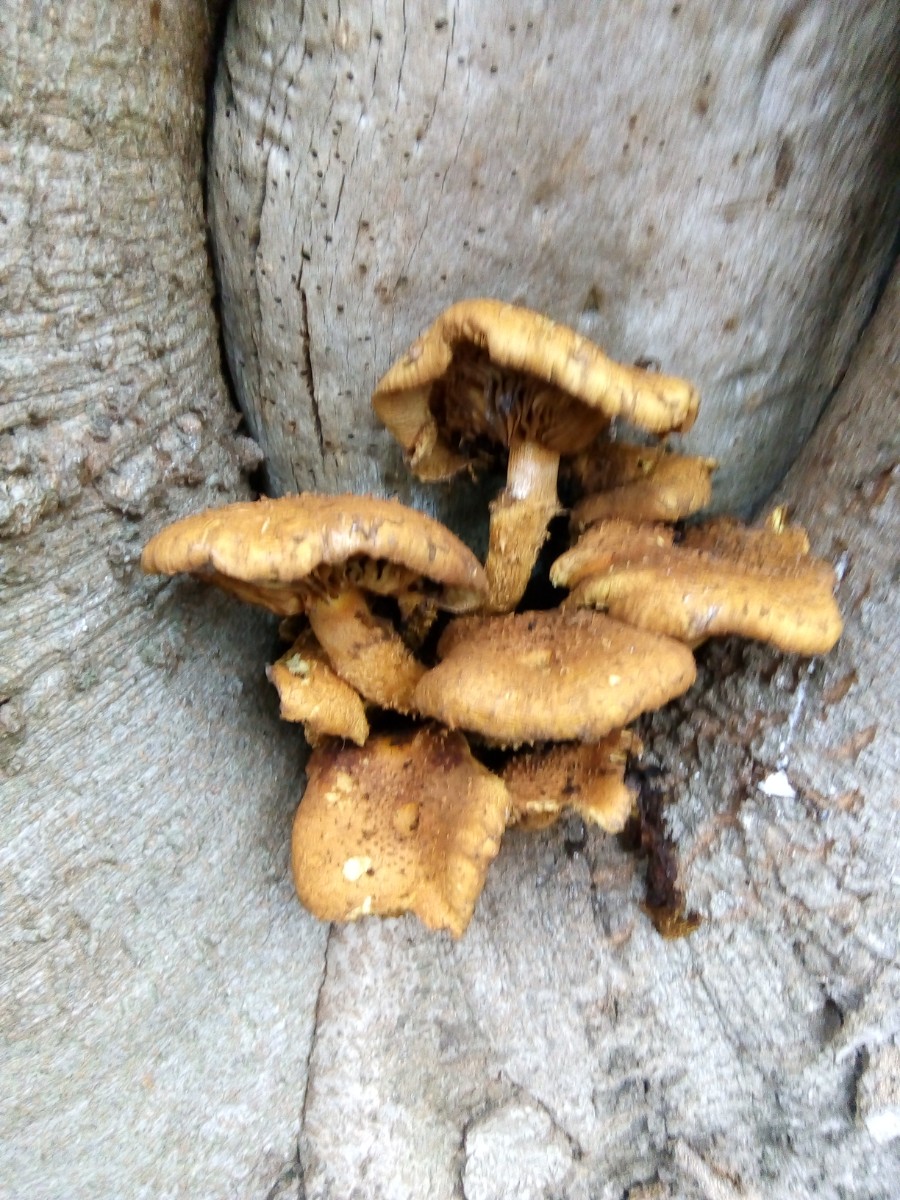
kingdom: Fungi
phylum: Basidiomycota
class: Agaricomycetes
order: Agaricales
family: Strophariaceae
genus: Pholiota
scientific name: Pholiota squarrosa
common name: krumskællet skælhat
